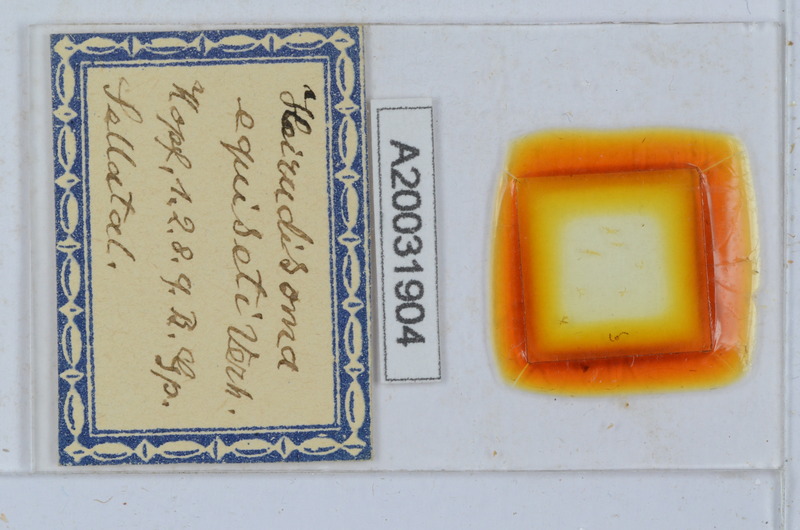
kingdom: Animalia
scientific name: Animalia
